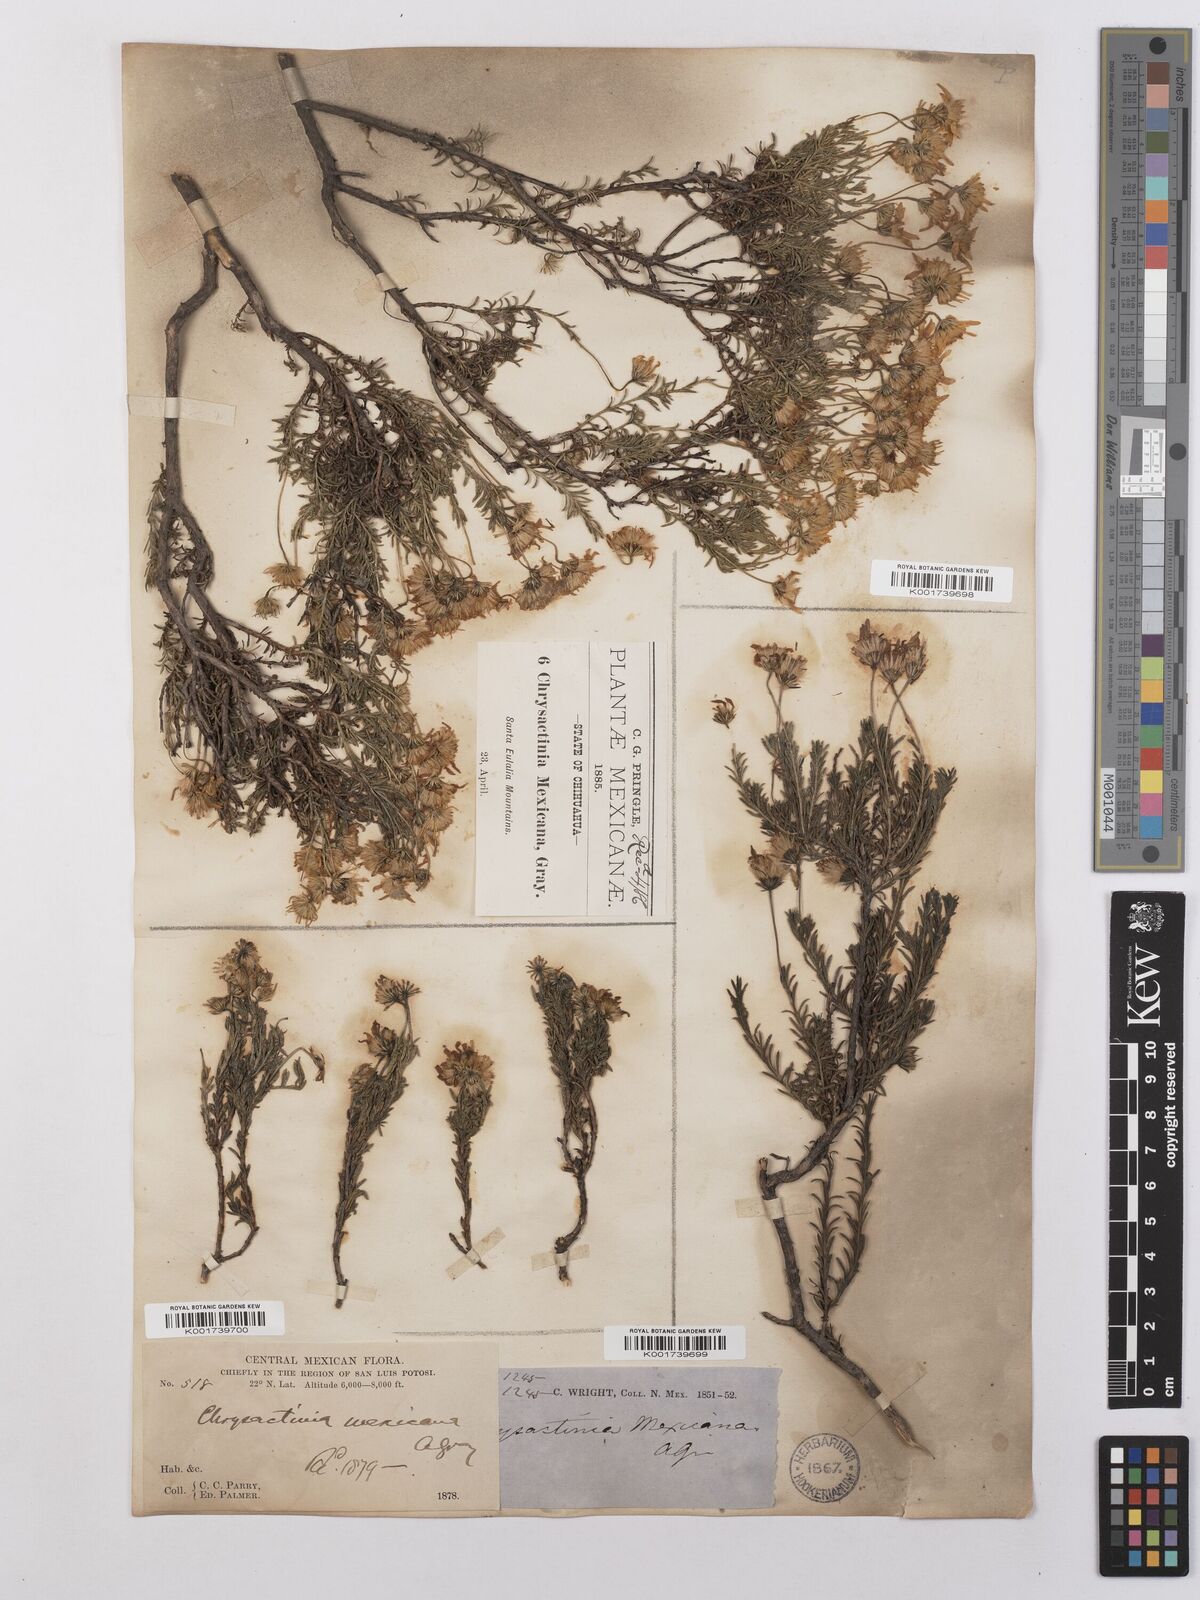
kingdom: Plantae
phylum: Tracheophyta
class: Magnoliopsida
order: Asterales
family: Asteraceae
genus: Chrysactinia
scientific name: Chrysactinia mexicana
